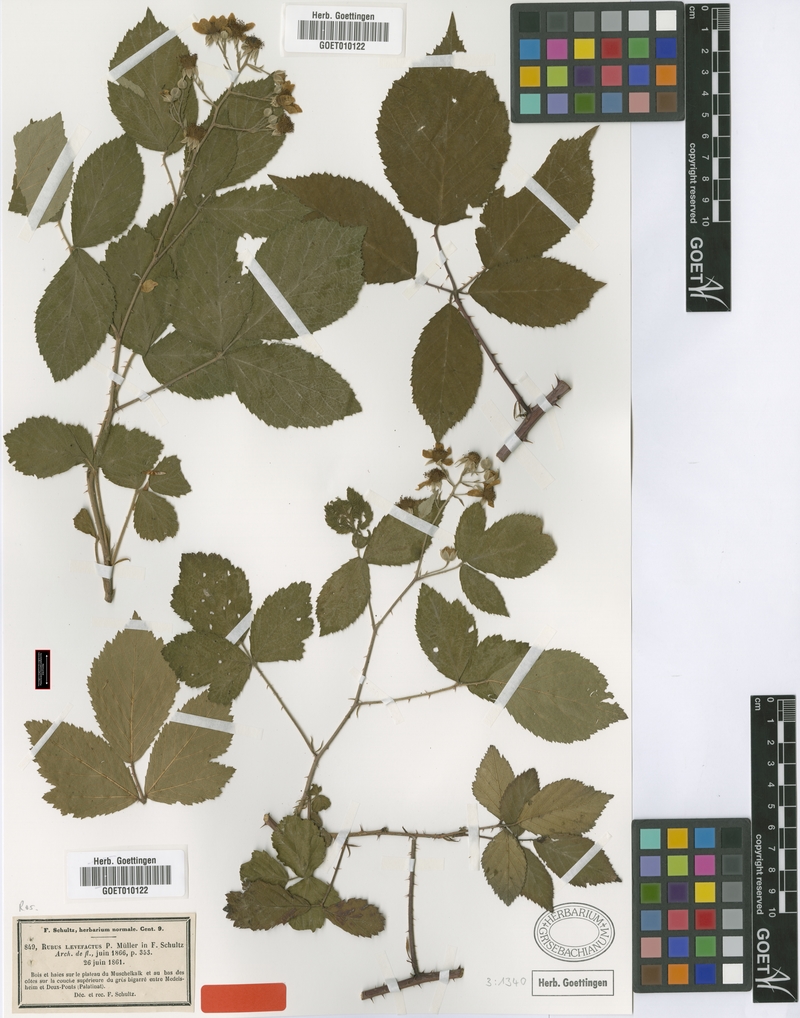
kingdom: Plantae
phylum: Tracheophyta
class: Magnoliopsida
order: Rosales
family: Rosaceae
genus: Rubus
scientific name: Rubus laevefactus
